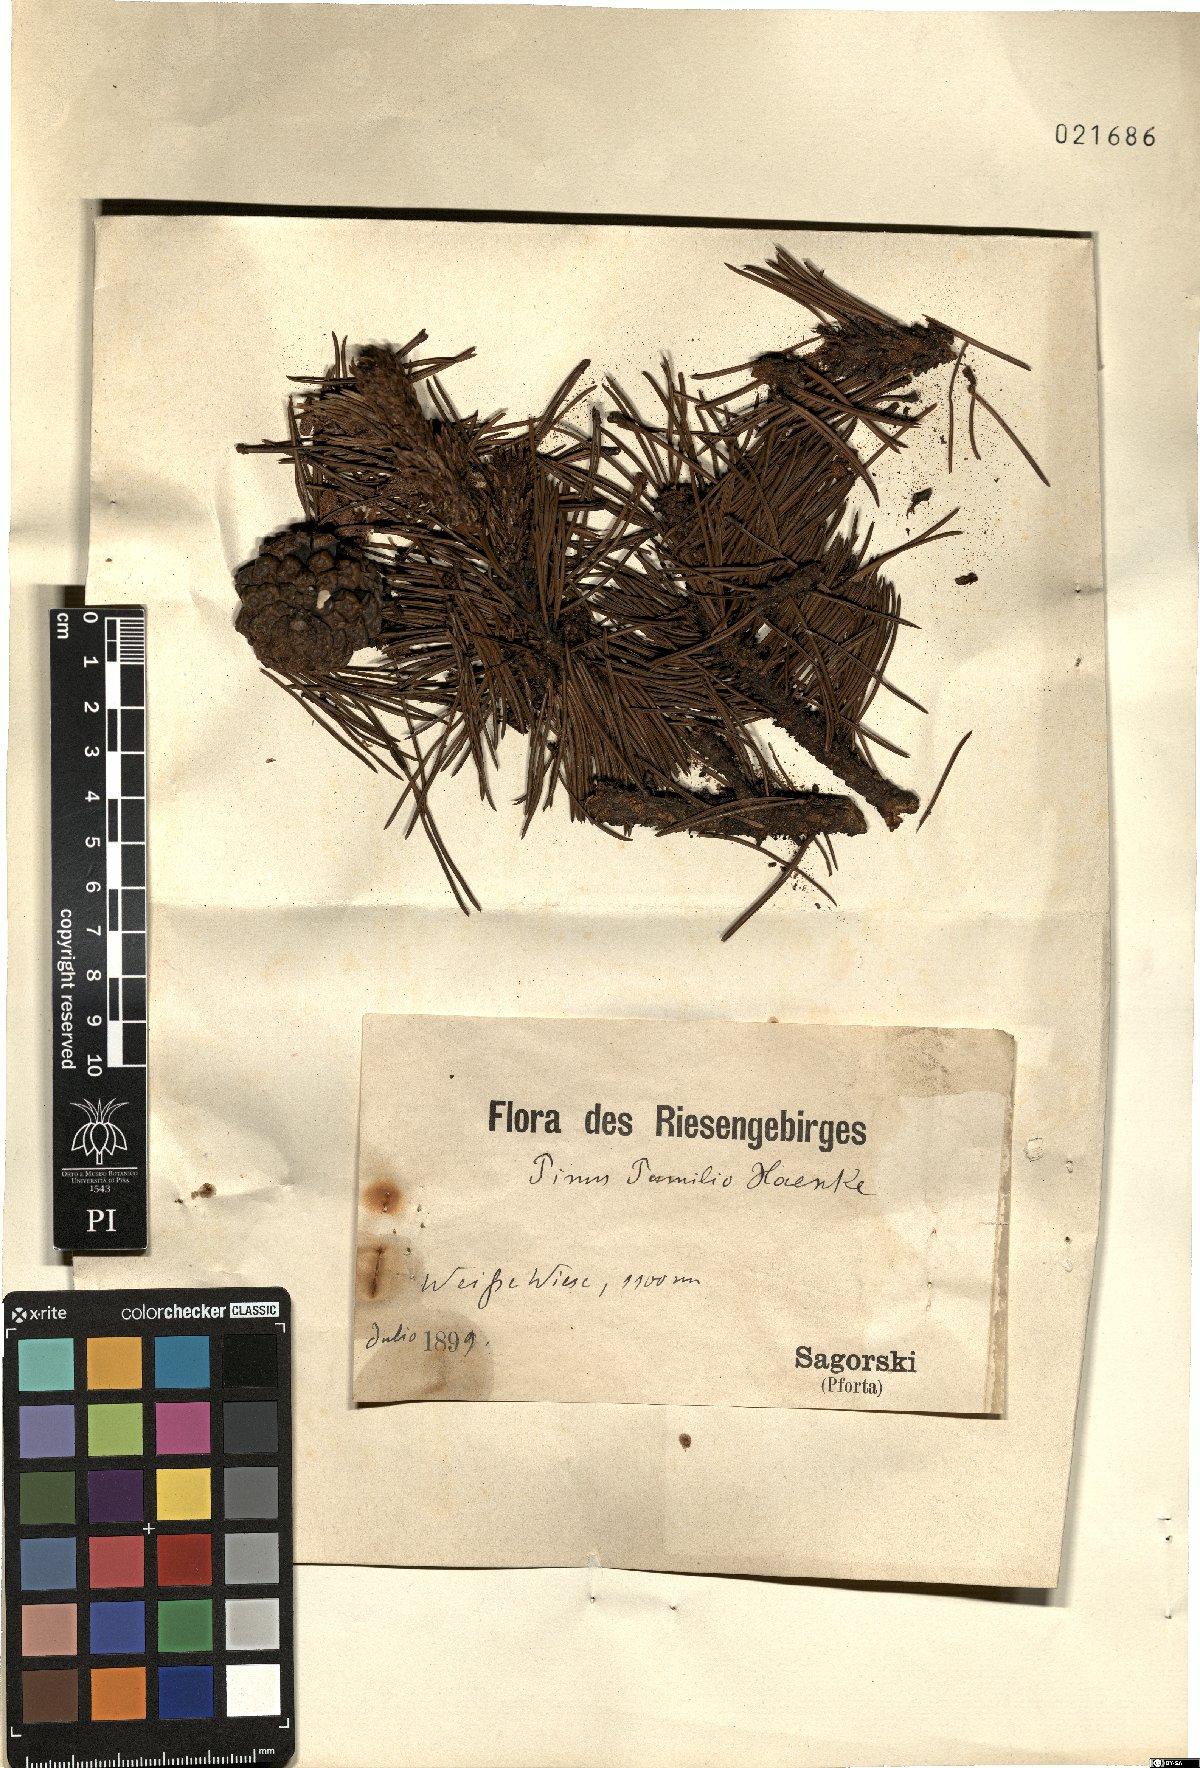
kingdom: Plantae
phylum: Tracheophyta
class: Pinopsida
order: Pinales
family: Pinaceae
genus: Pinus
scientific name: Pinus mugo
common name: Mugo pine
